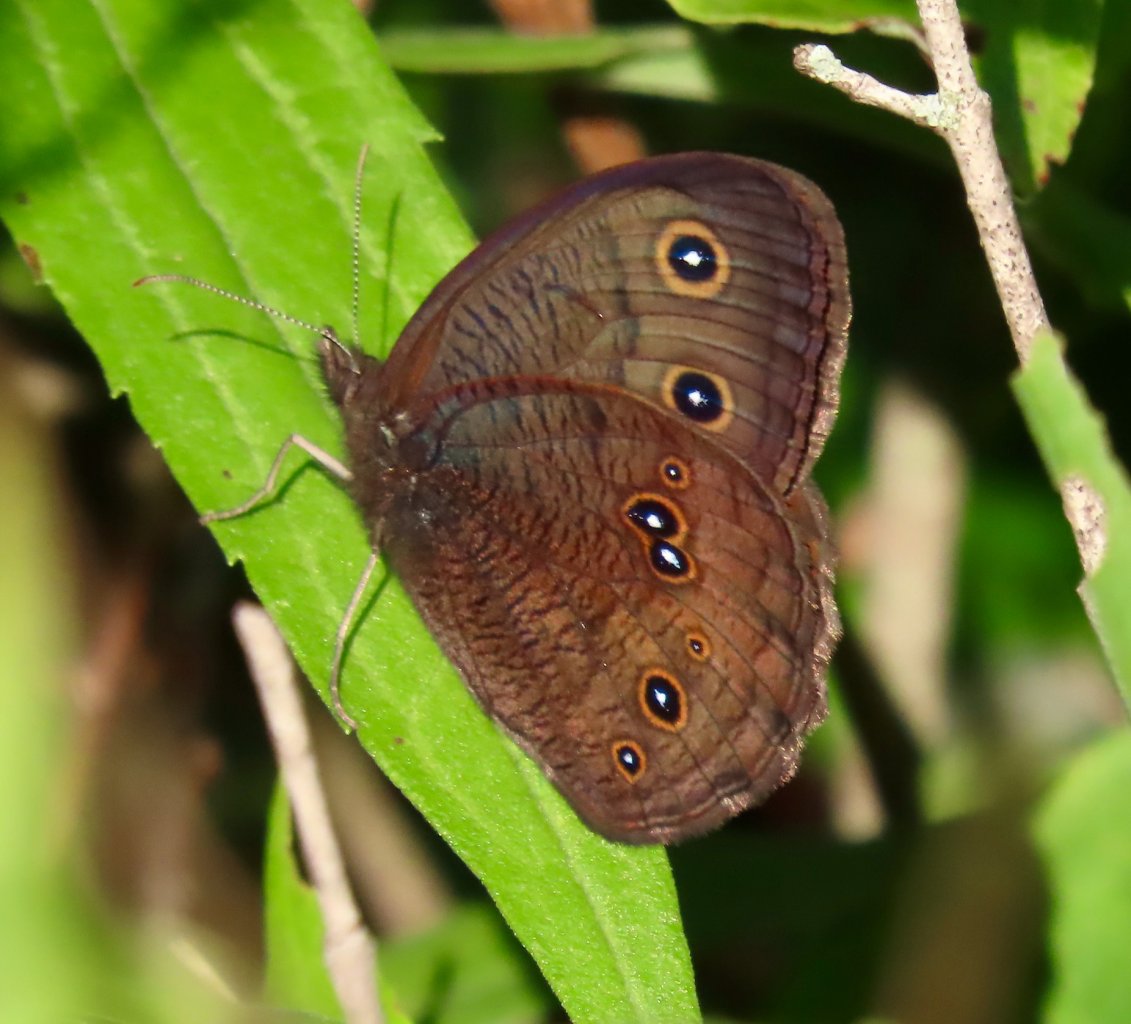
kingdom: Animalia
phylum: Arthropoda
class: Insecta
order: Lepidoptera
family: Nymphalidae
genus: Cercyonis
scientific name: Cercyonis pegala
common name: Common Wood-Nymph
